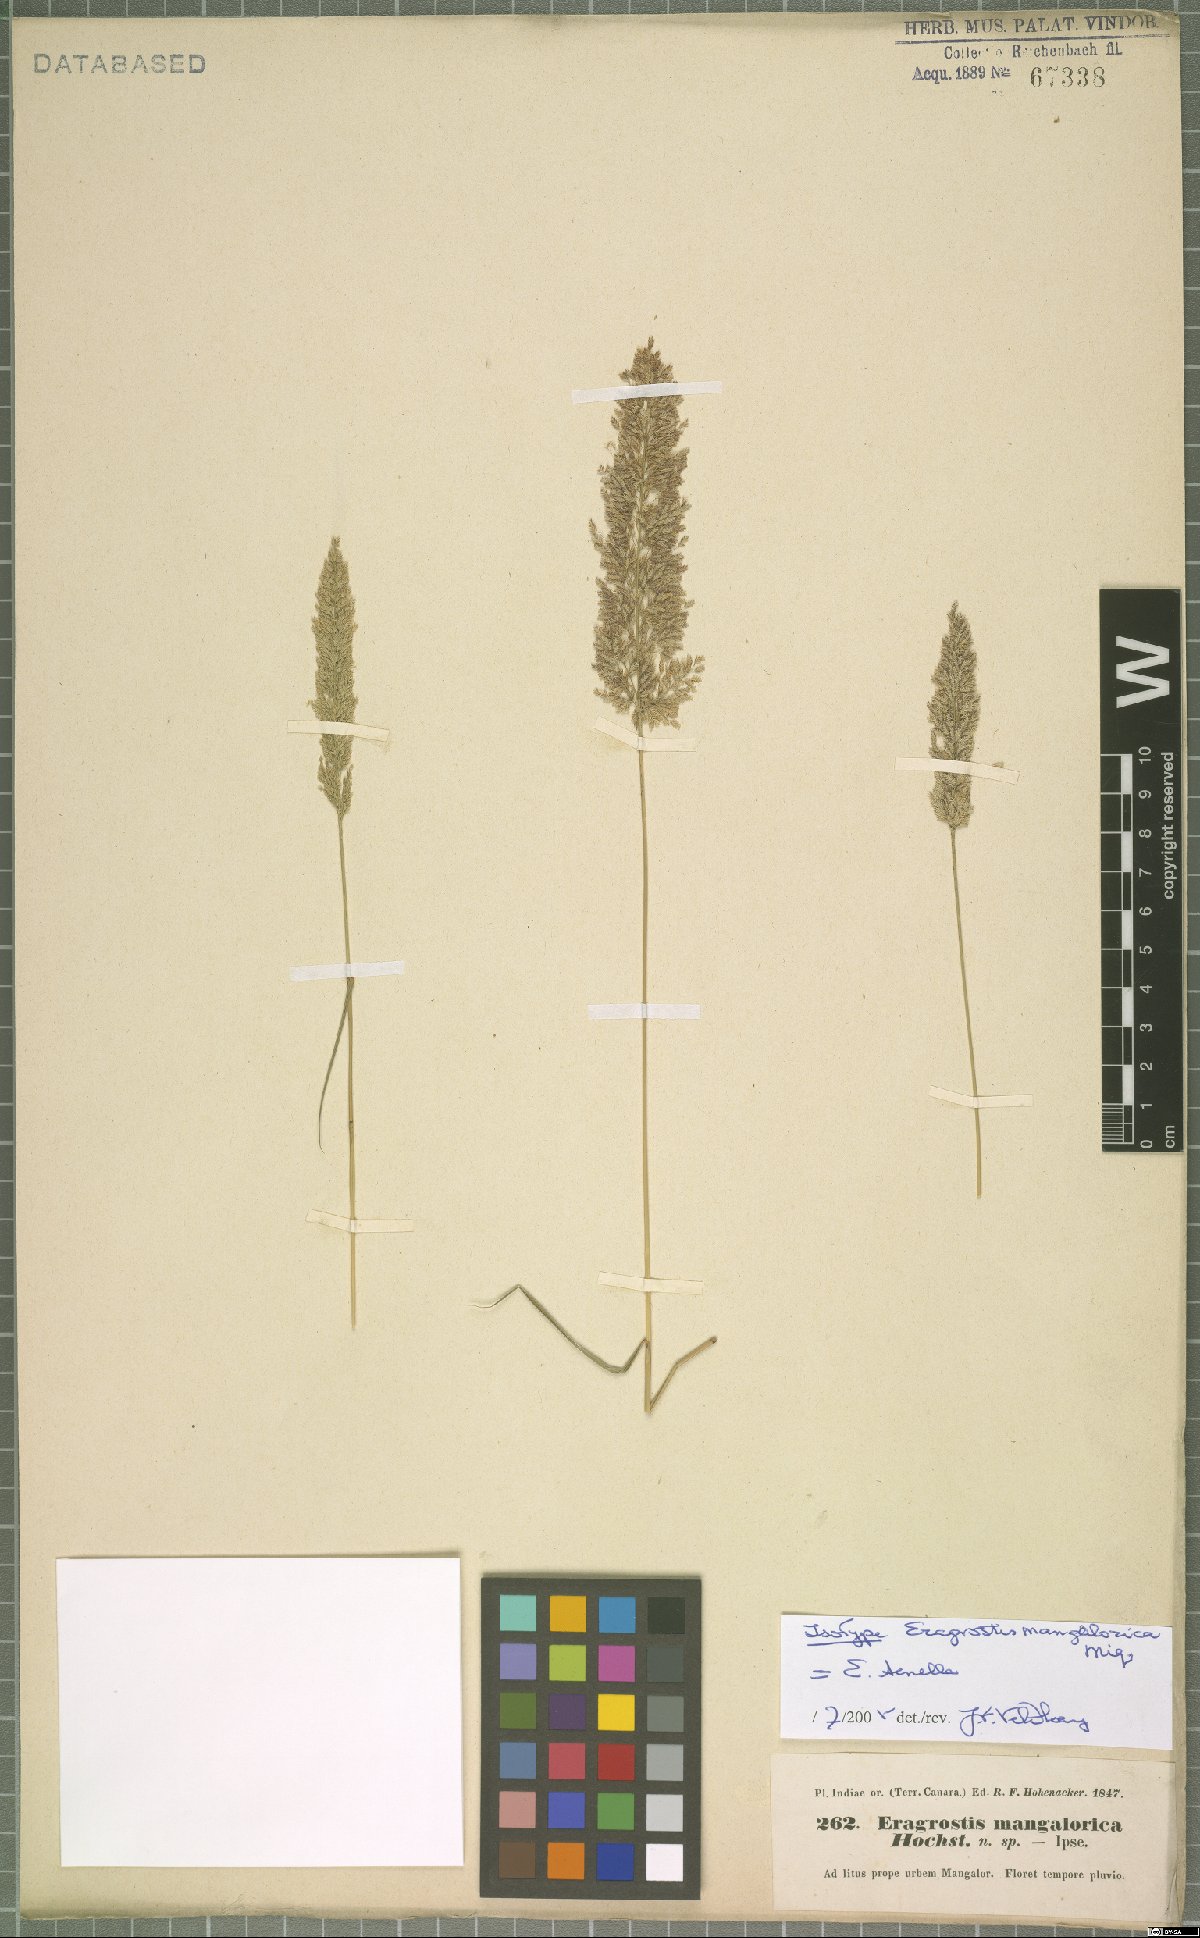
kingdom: Plantae
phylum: Tracheophyta
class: Liliopsida
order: Poales
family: Poaceae
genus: Eragrostis
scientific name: Eragrostis tenella
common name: Japanese lovegrass
